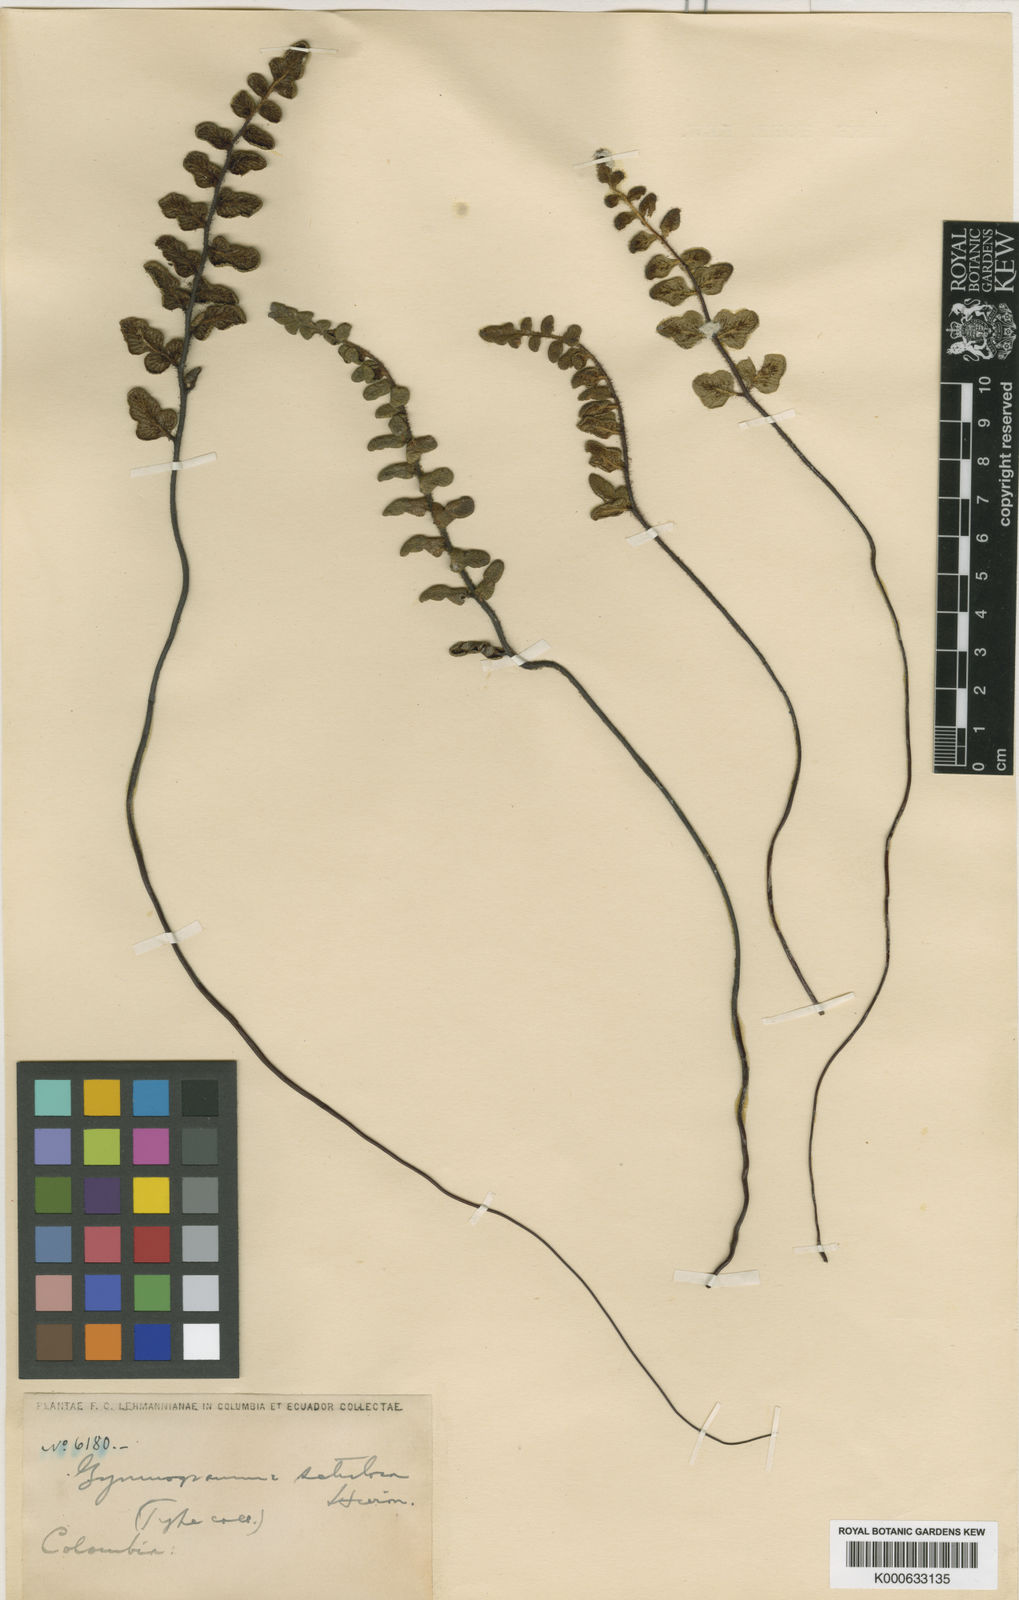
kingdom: Plantae
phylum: Tracheophyta
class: Polypodiopsida
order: Polypodiales
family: Pteridaceae
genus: Jamesonia
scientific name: Jamesonia setulosa
